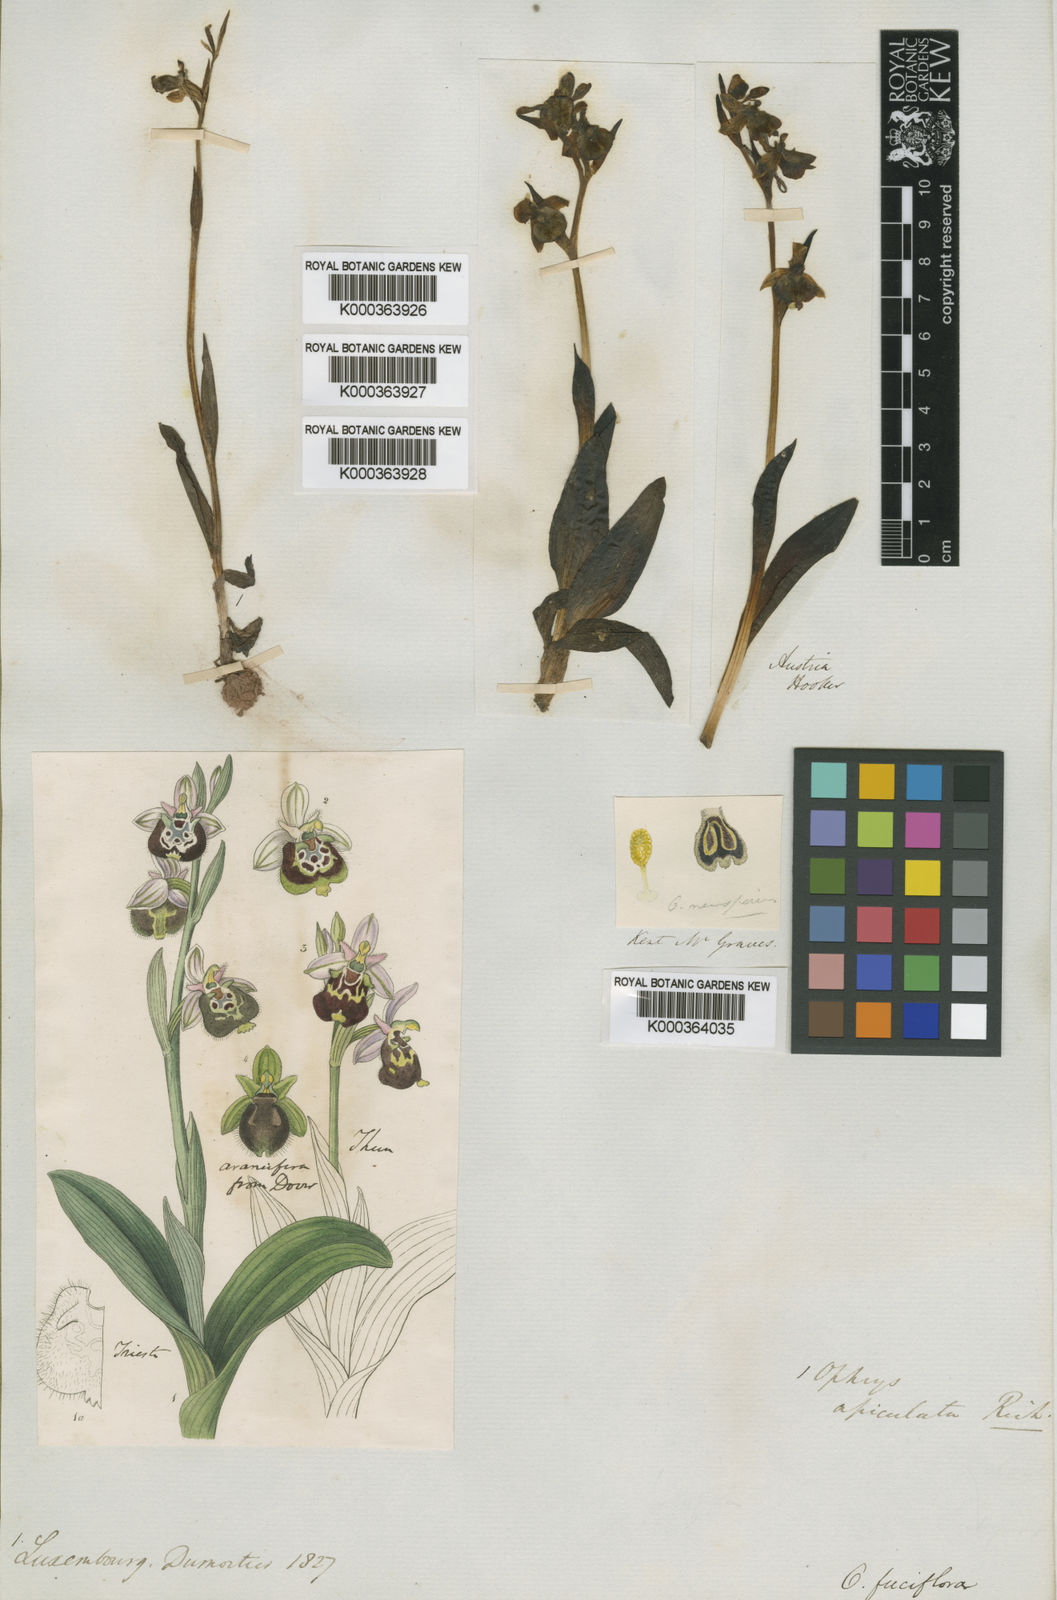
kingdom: Plantae
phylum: Tracheophyta
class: Liliopsida
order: Asparagales
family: Orchidaceae
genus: Ophrys
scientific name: Ophrys
